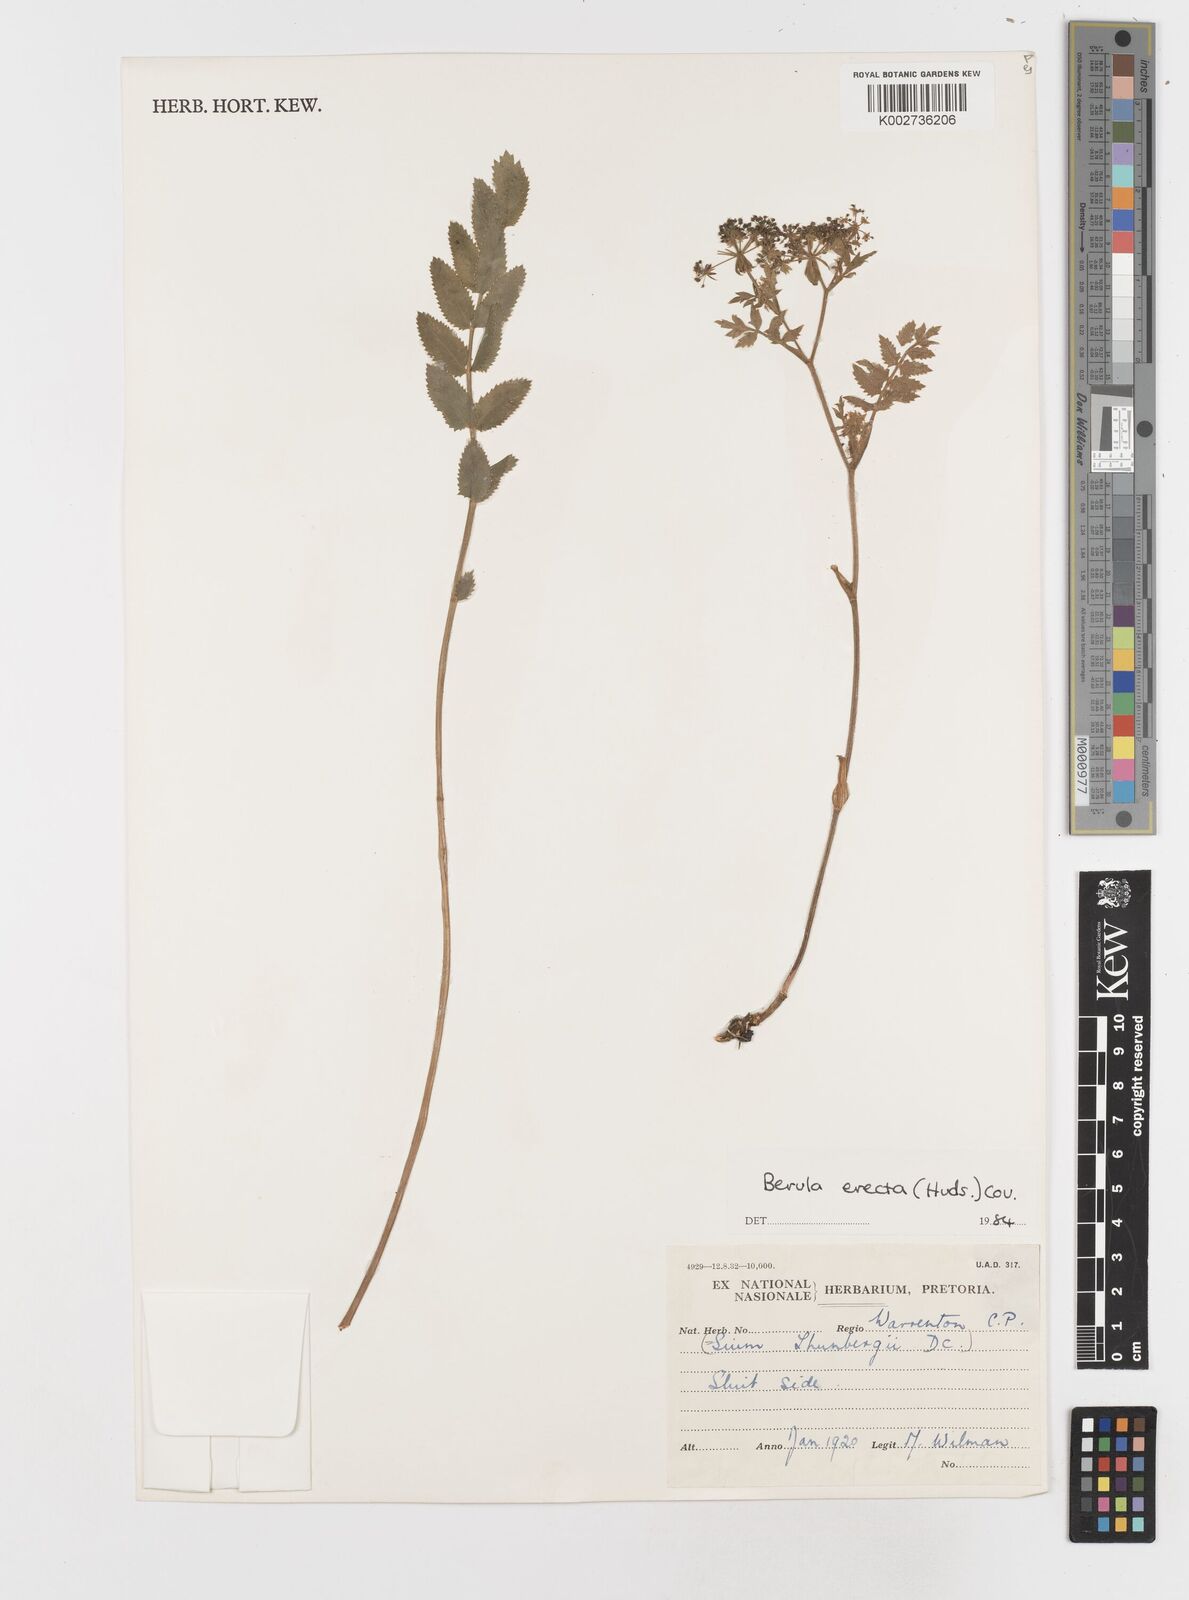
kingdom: Plantae
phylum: Tracheophyta
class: Magnoliopsida
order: Apiales
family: Apiaceae
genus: Berula
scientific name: Berula erecta
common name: Lesser water-parsnip
